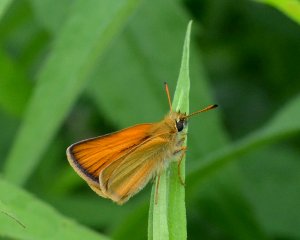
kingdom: Animalia
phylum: Arthropoda
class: Insecta
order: Lepidoptera
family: Hesperiidae
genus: Thymelicus
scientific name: Thymelicus lineola
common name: European Skipper
